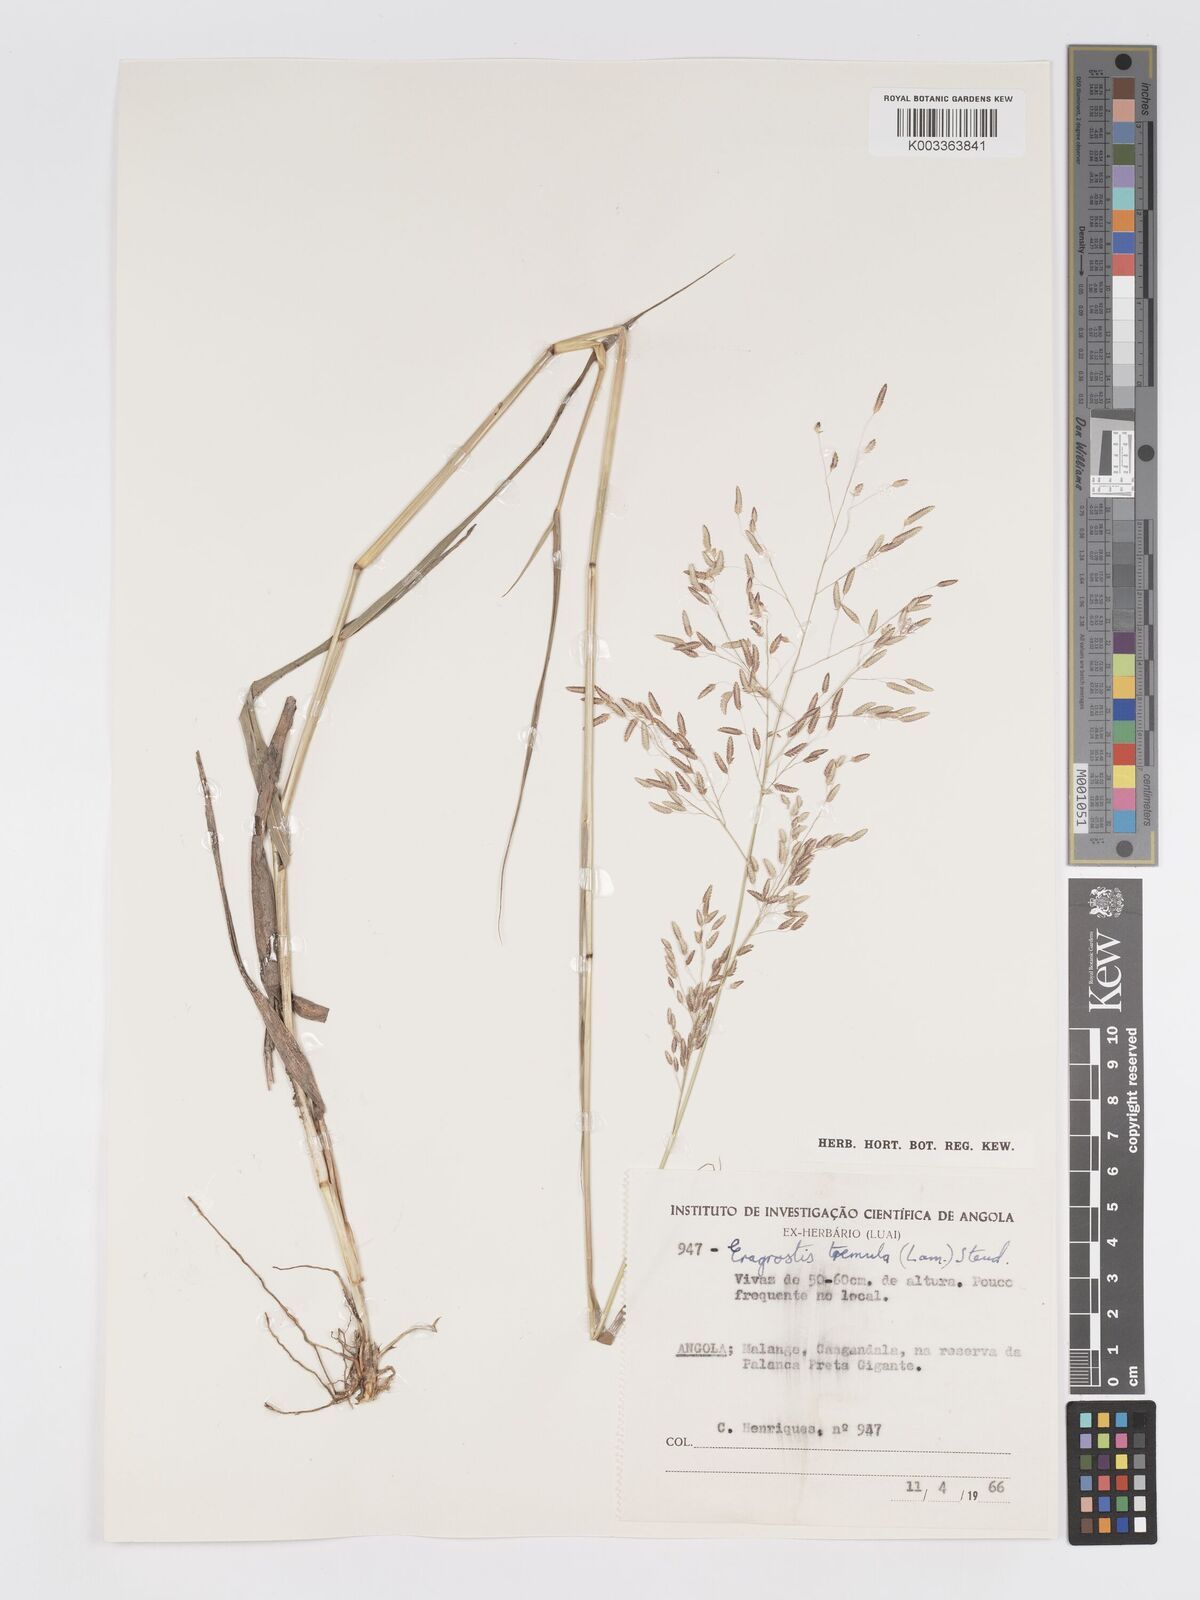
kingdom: Plantae
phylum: Tracheophyta
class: Liliopsida
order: Poales
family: Poaceae
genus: Eragrostis
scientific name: Eragrostis tremula
